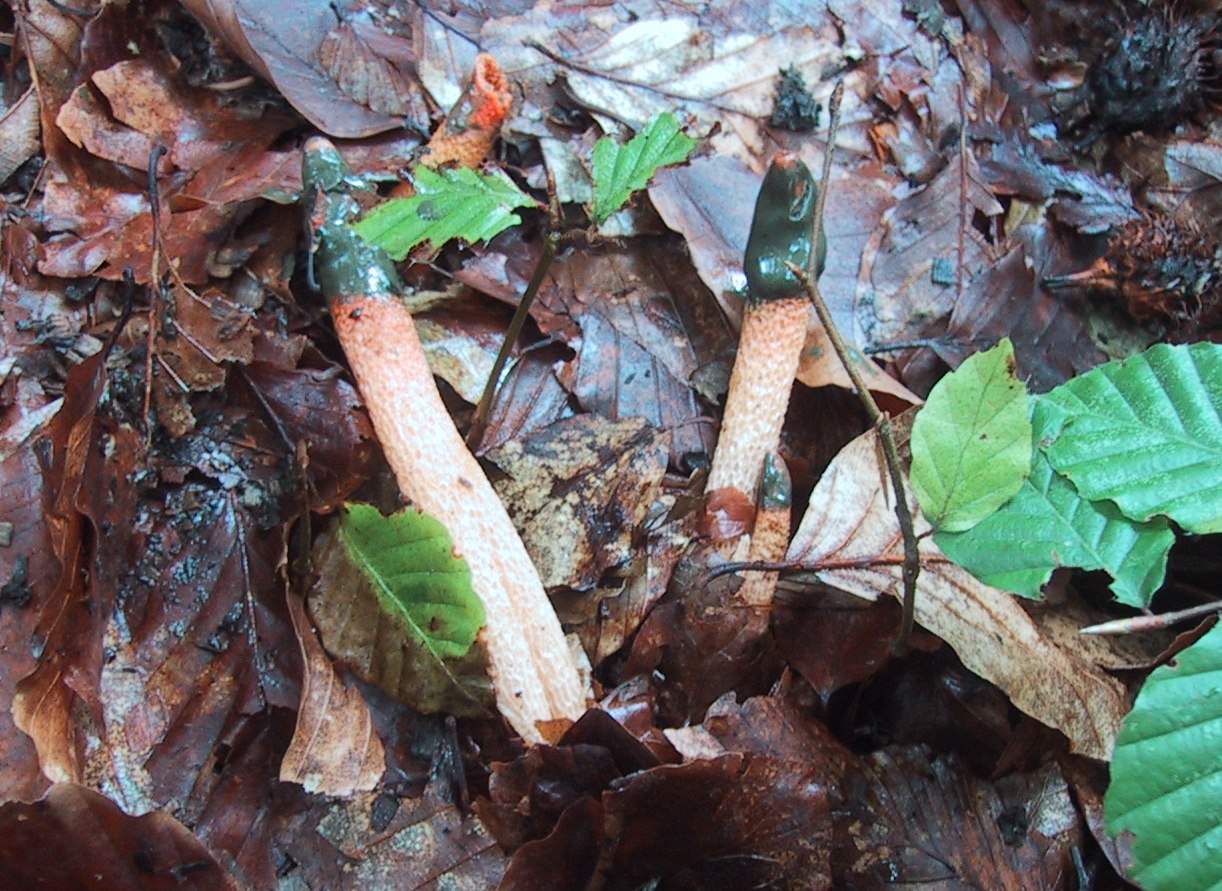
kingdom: Fungi
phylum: Basidiomycota
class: Agaricomycetes
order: Phallales
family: Phallaceae
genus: Mutinus
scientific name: Mutinus caninus
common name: hunde-stinksvamp
